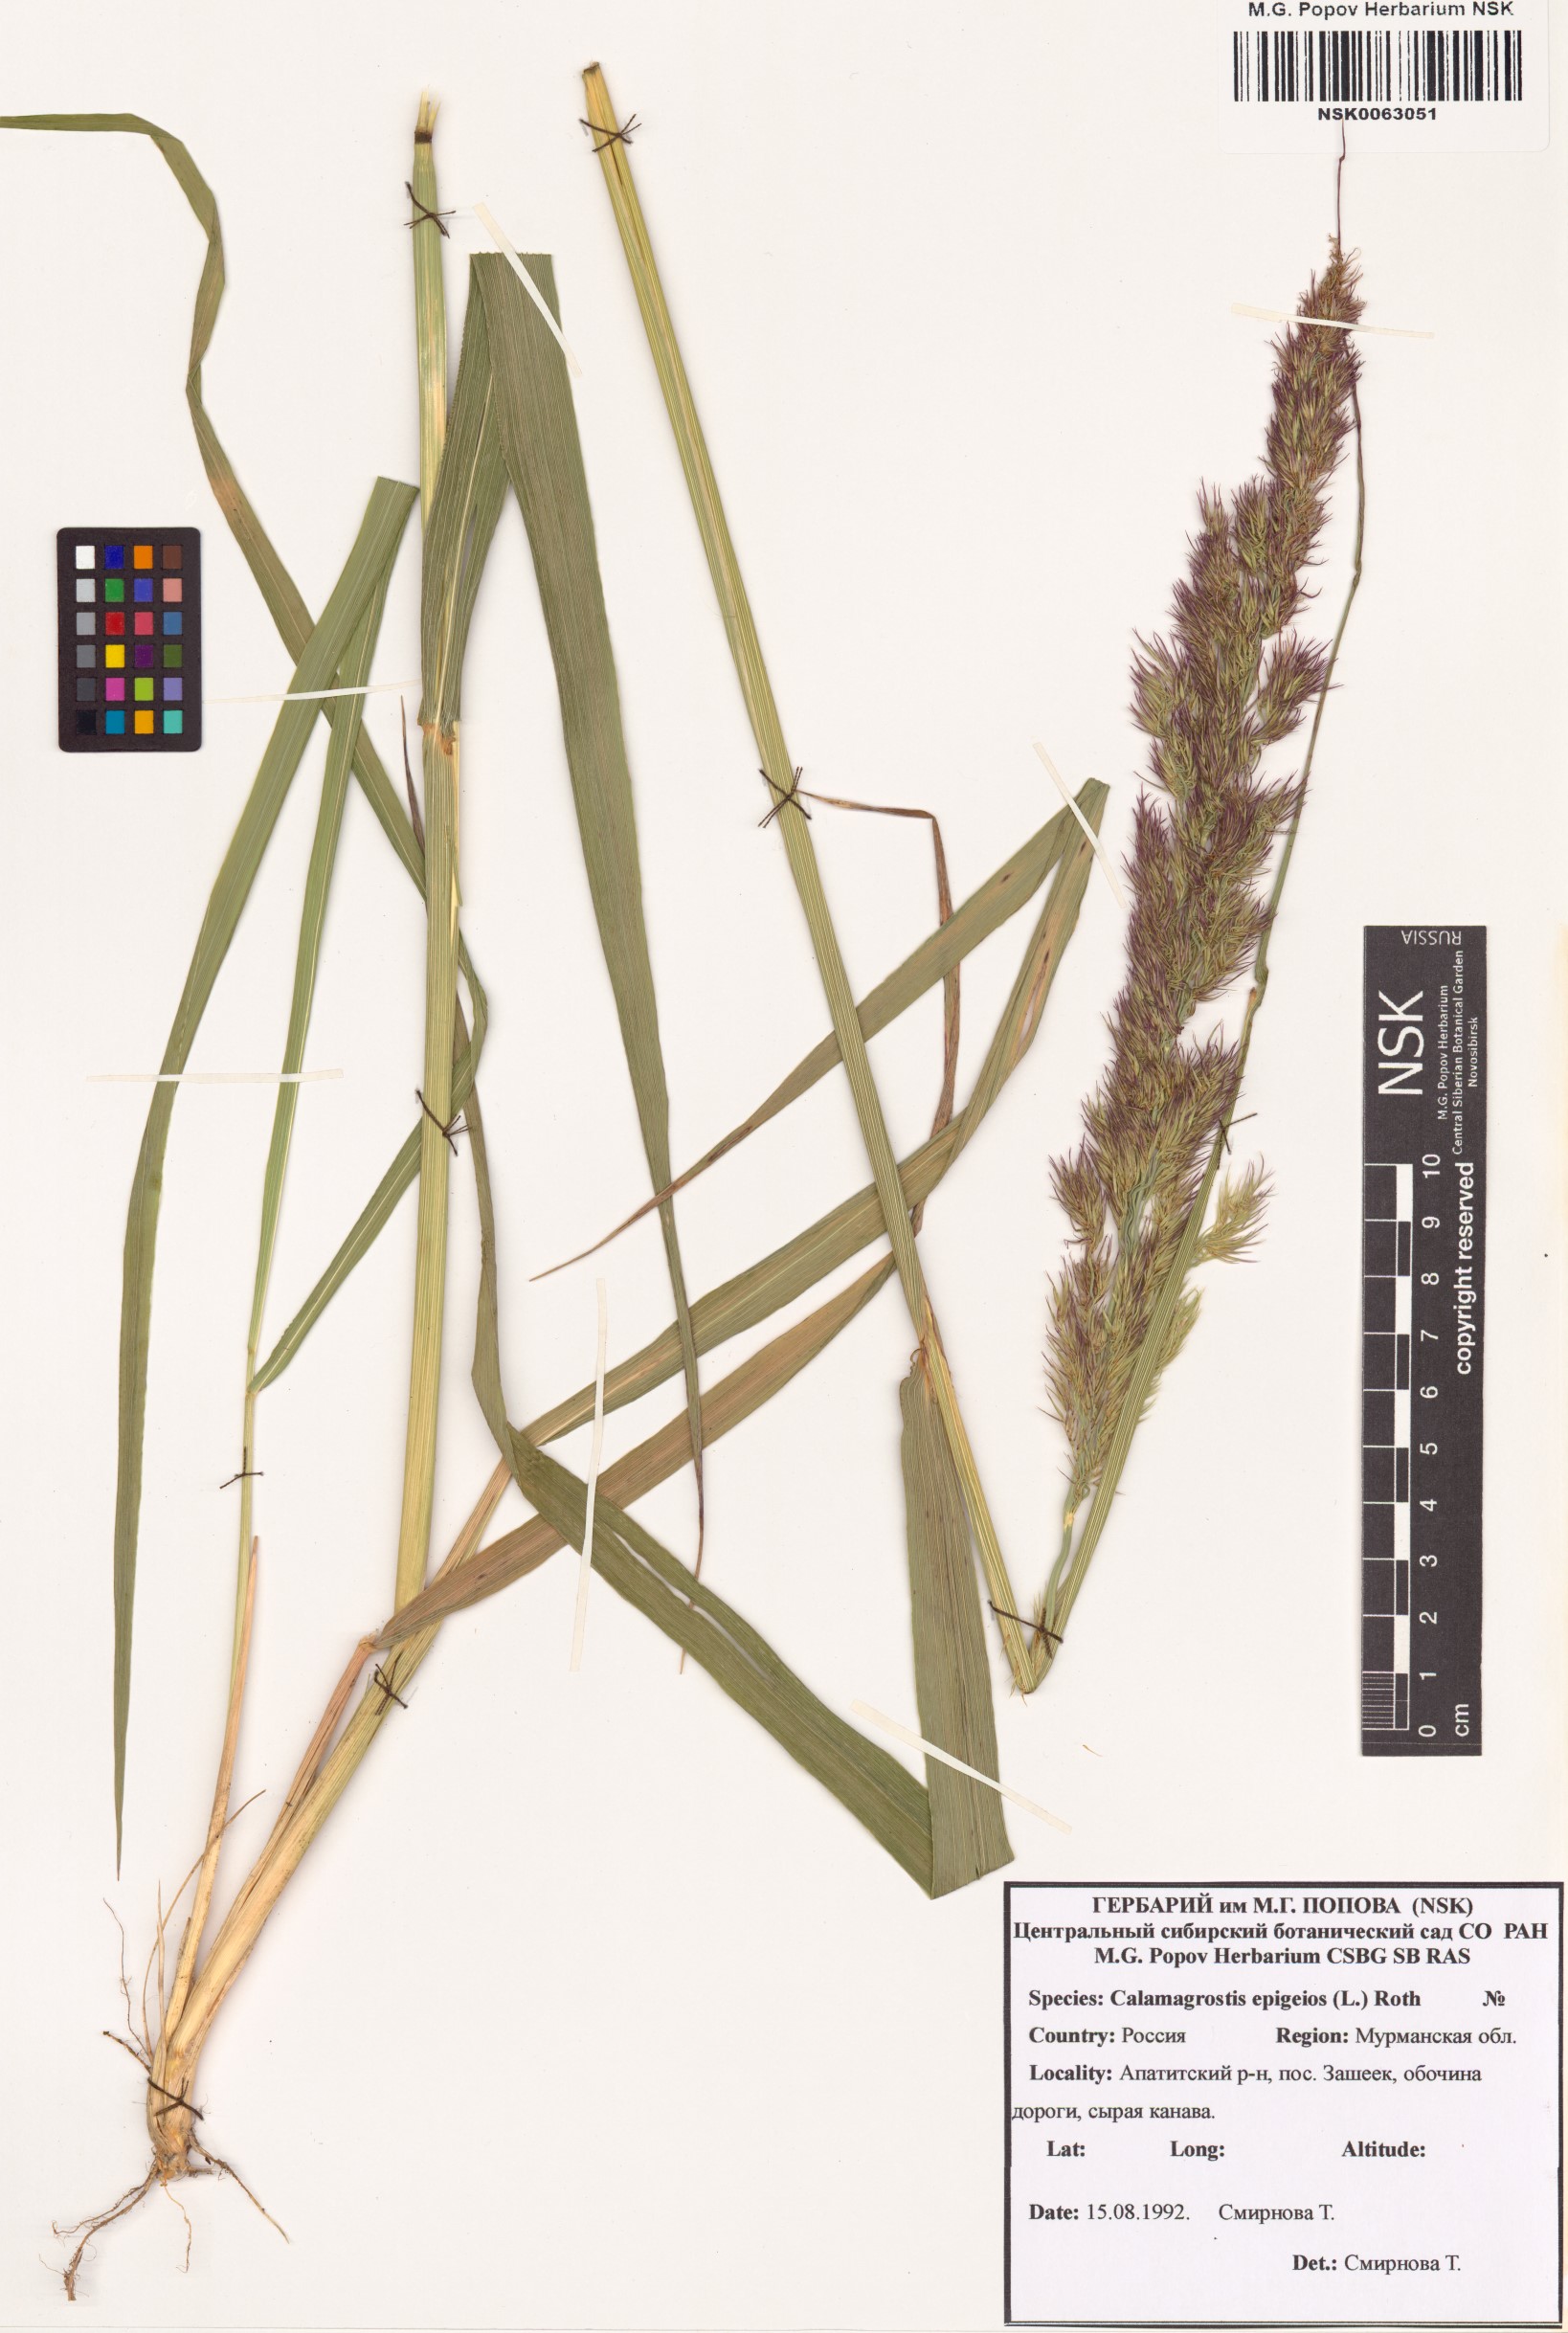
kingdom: Plantae
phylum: Tracheophyta
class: Liliopsida
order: Poales
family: Poaceae
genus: Calamagrostis
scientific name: Calamagrostis epigejos
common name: Wood small-reed
